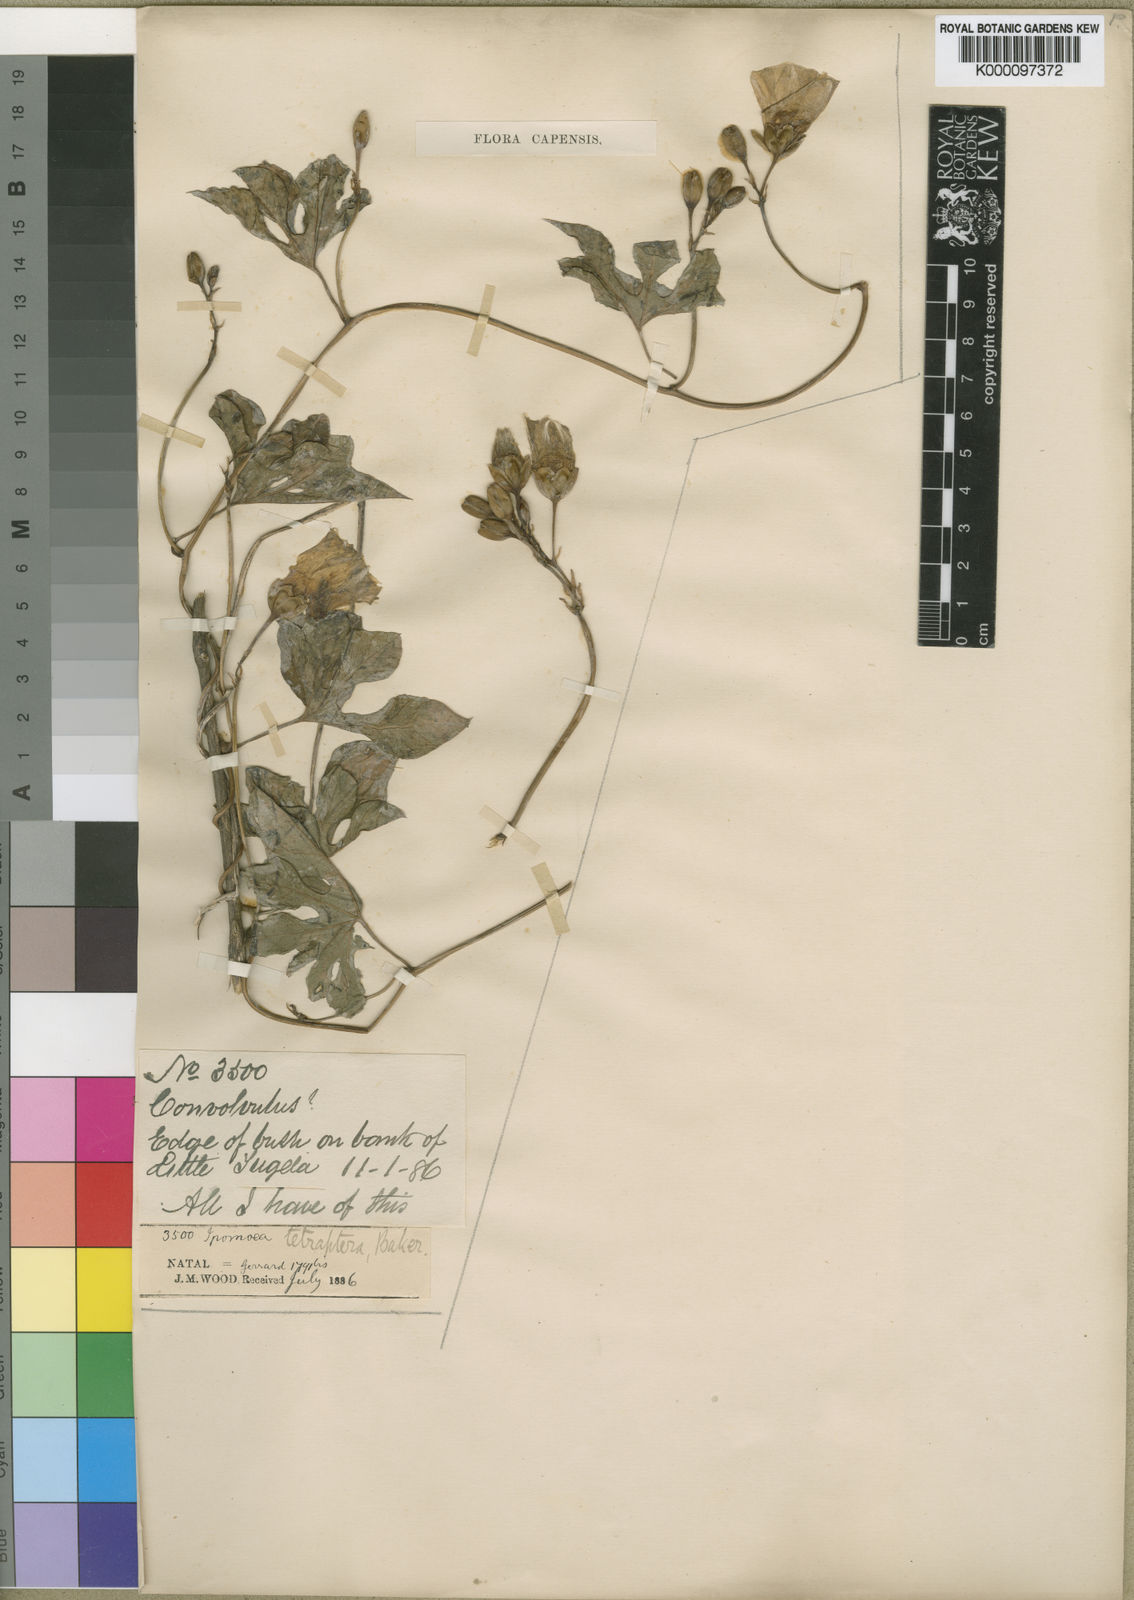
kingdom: Plantae
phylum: Tracheophyta
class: Magnoliopsida
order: Solanales
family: Convolvulaceae
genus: Merremia
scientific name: Merremia pterygocaulos
